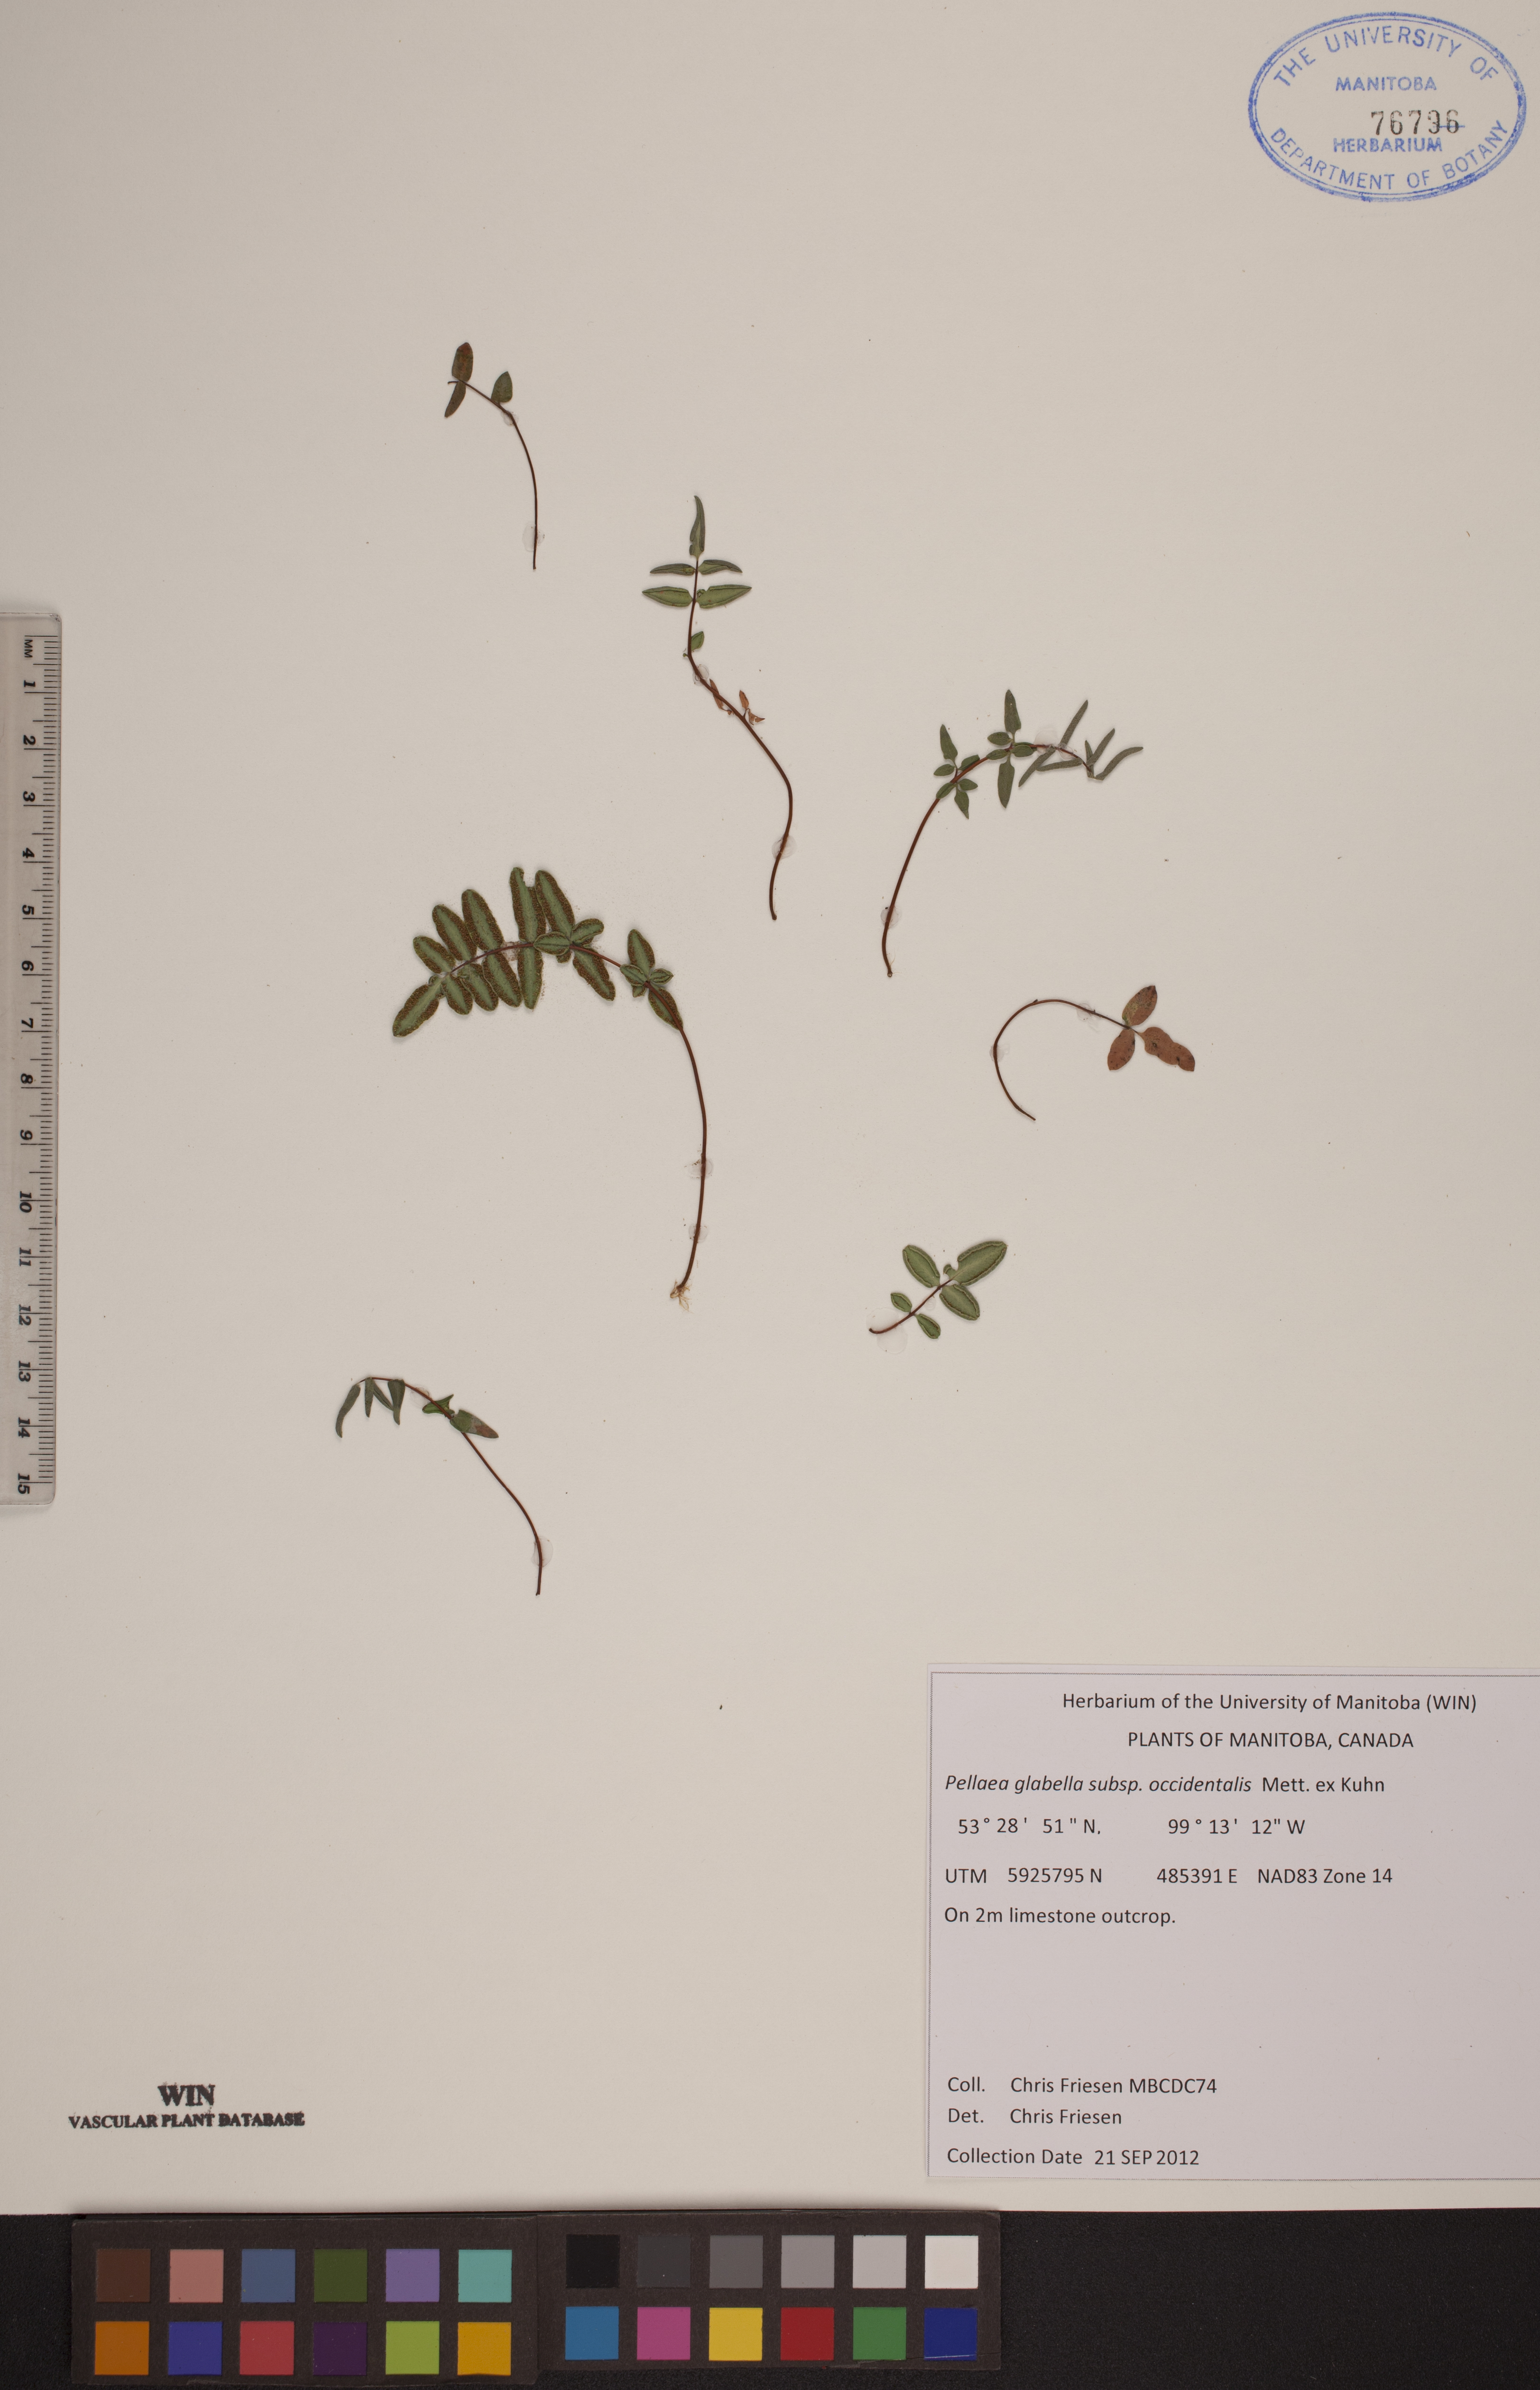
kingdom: Plantae
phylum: Tracheophyta
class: Polypodiopsida
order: Polypodiales
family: Pteridaceae
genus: Pellaea
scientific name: Pellaea glabella
